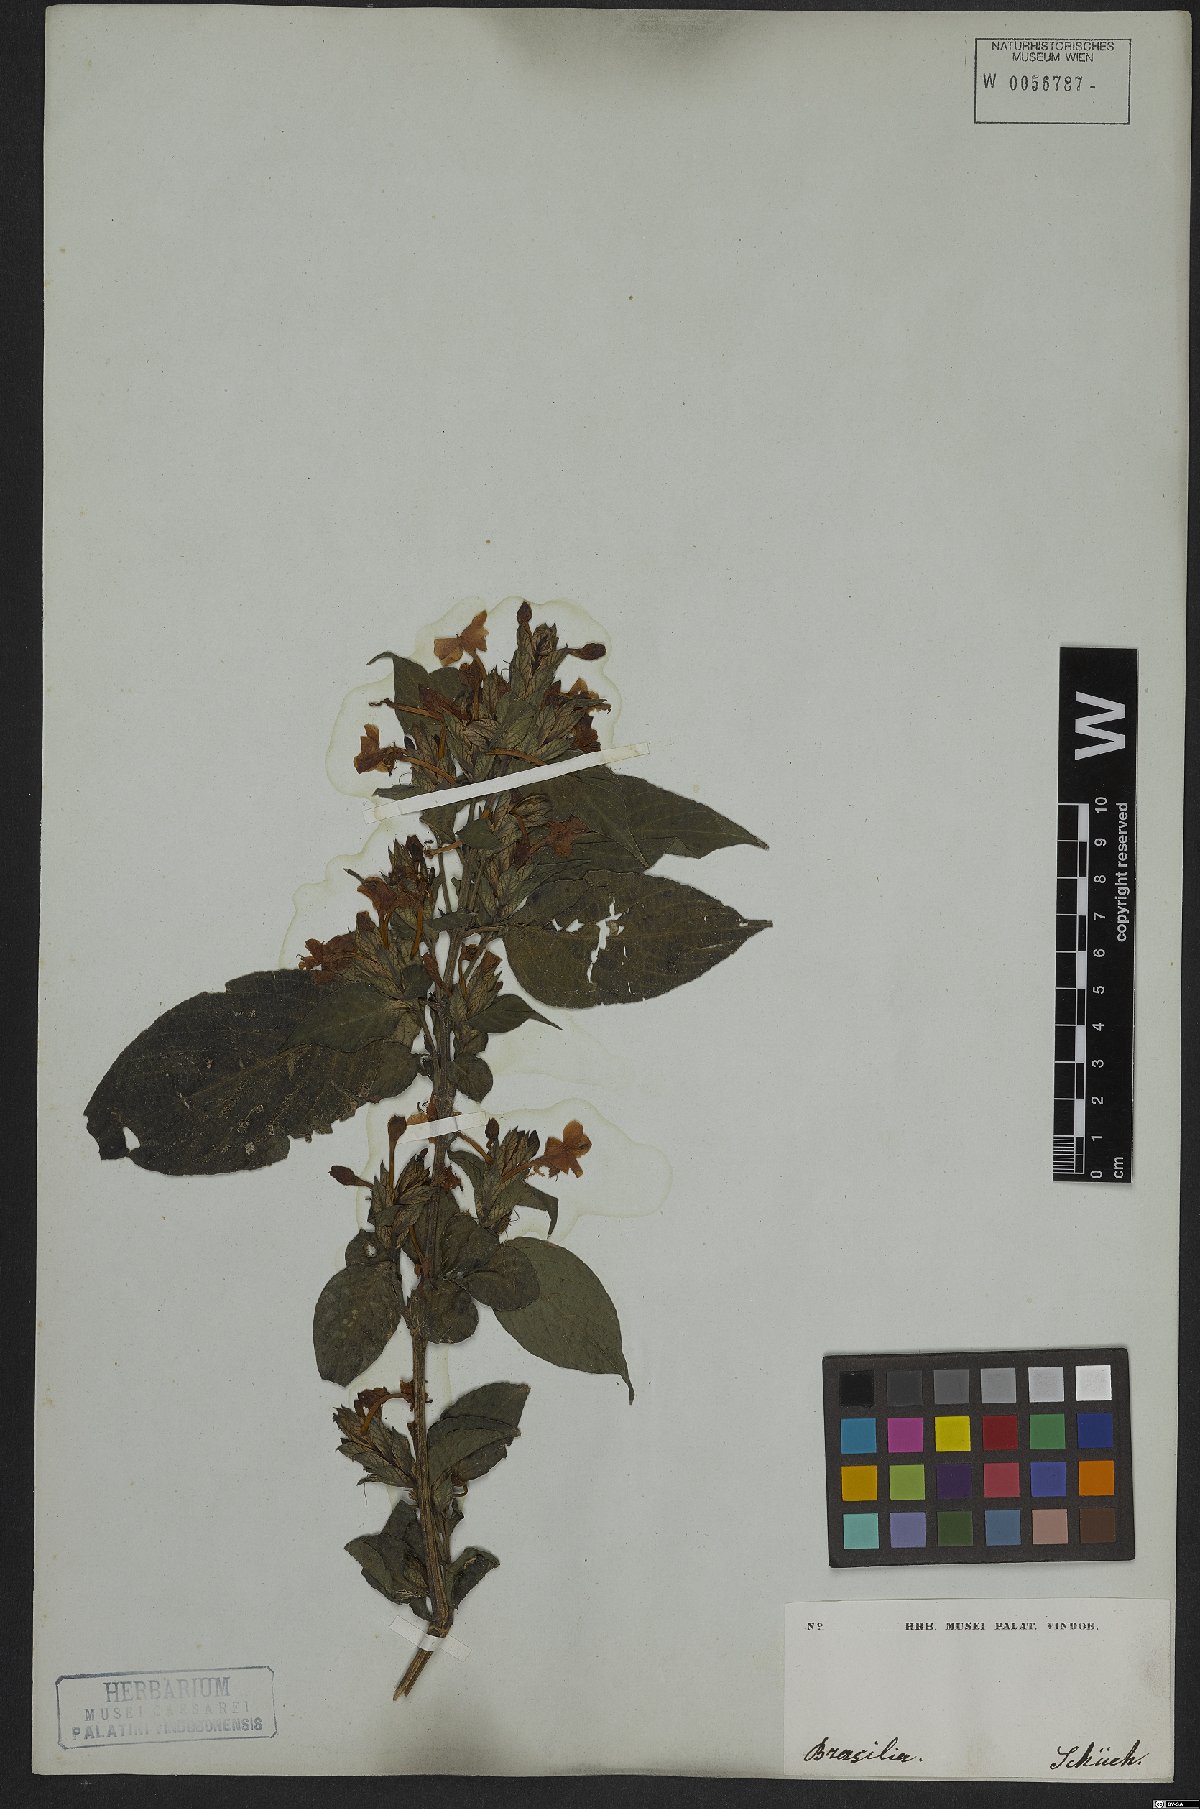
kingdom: Plantae
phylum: Tracheophyta
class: Magnoliopsida
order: Lamiales
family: Acanthaceae
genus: Eranthemum
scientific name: Eranthemum pulchellum
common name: Blue-sage
